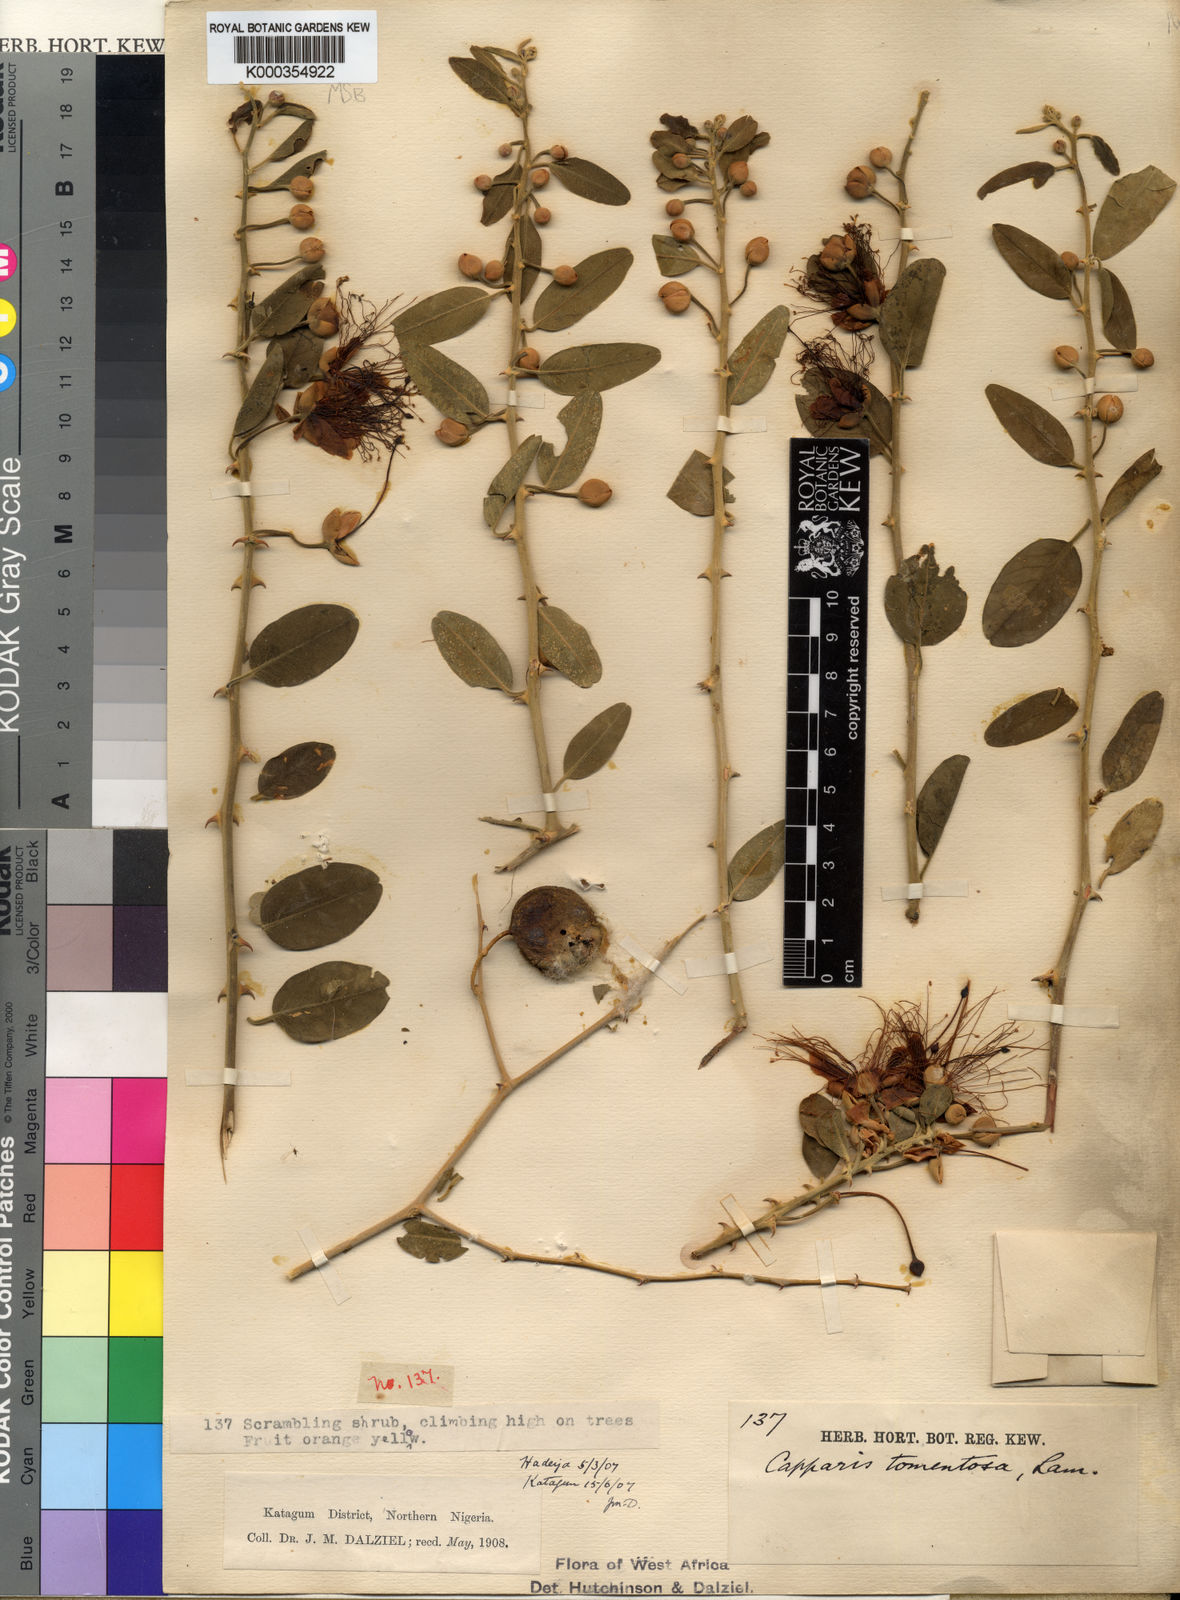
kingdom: Plantae
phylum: Tracheophyta
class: Magnoliopsida
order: Brassicales
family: Capparaceae
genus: Capparis
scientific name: Capparis tomentosa
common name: African caper
